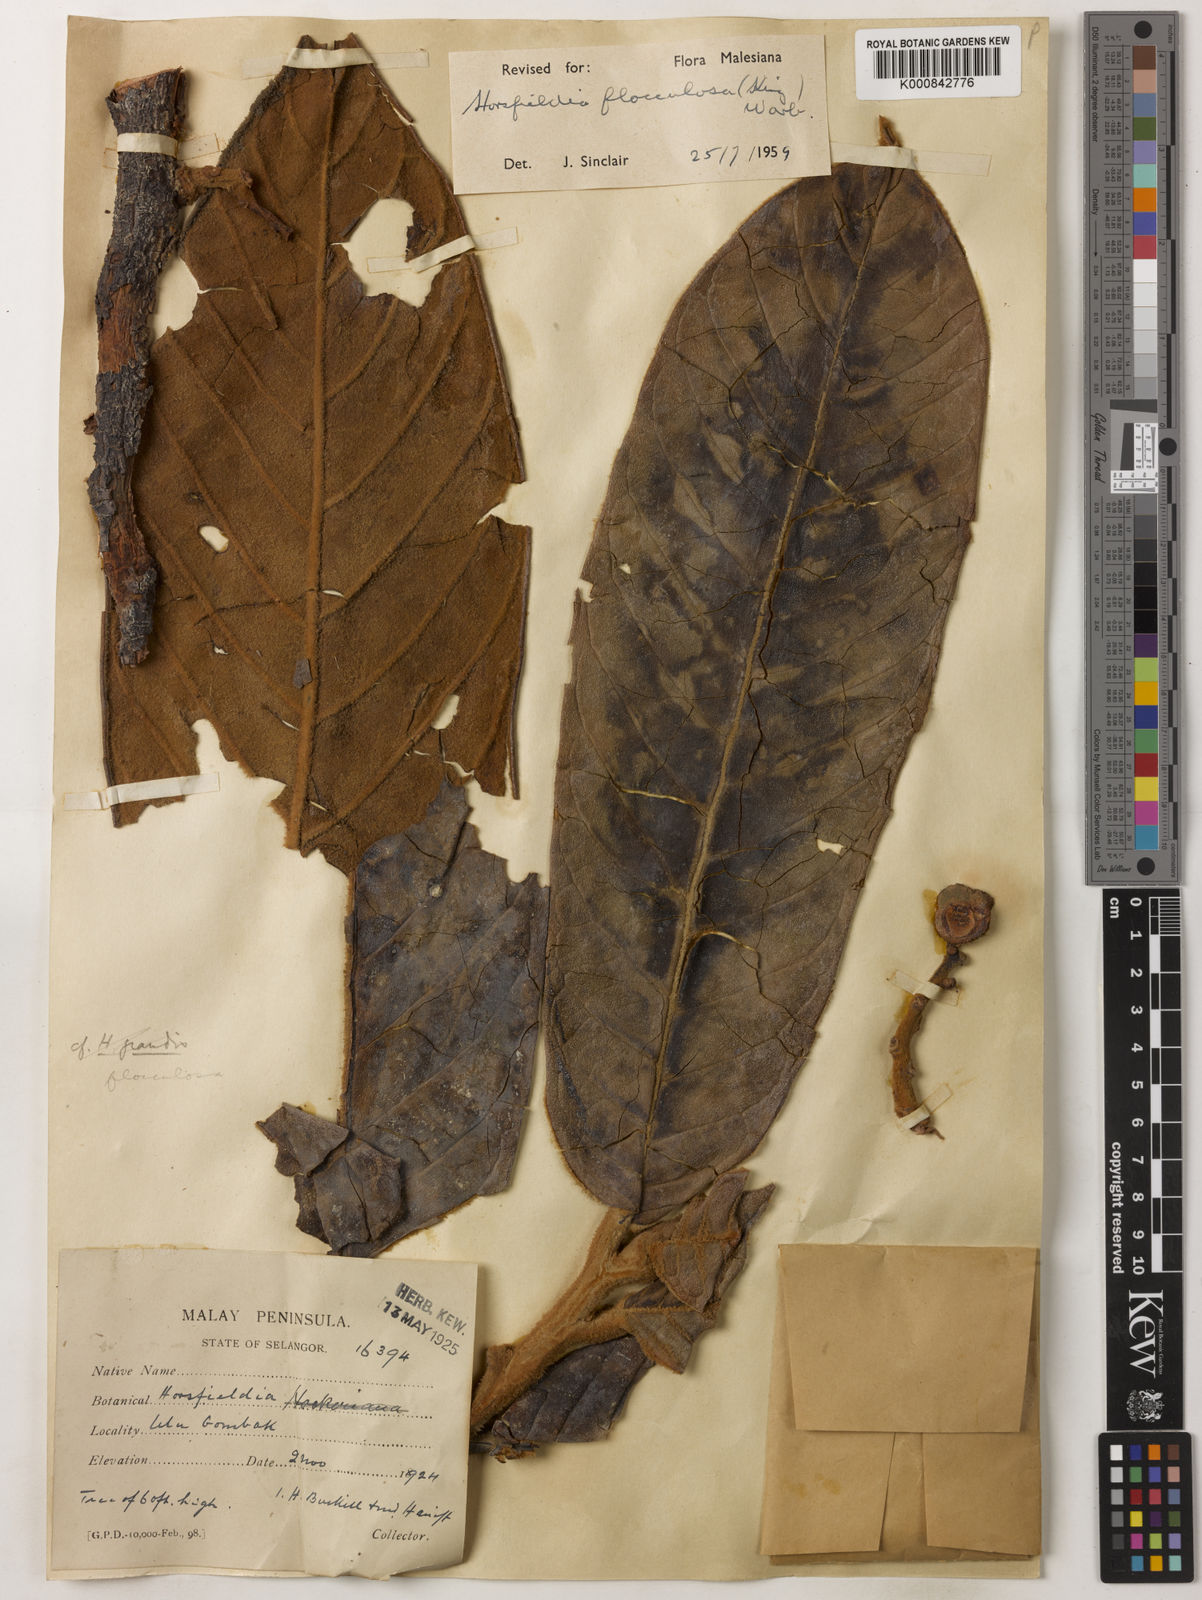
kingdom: Plantae
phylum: Tracheophyta
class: Magnoliopsida
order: Magnoliales
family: Myristicaceae
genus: Horsfieldia
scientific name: Horsfieldia flocculosa
